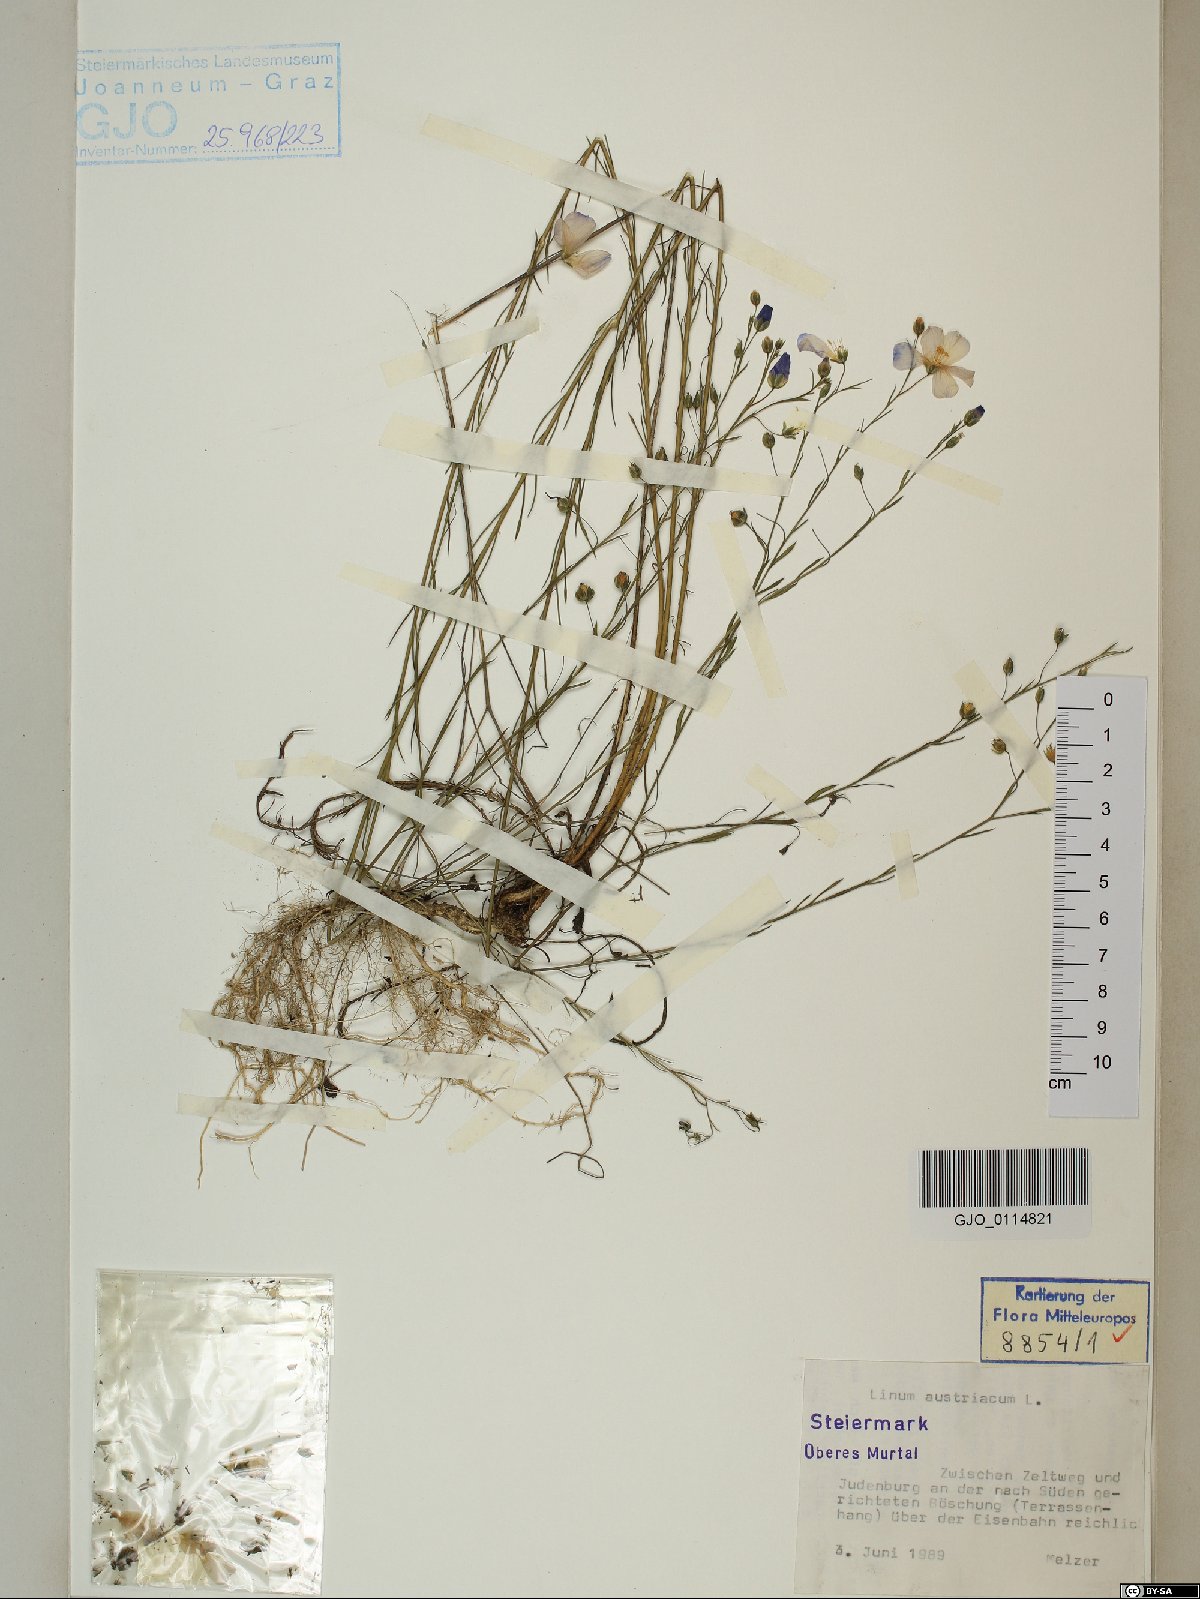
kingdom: Plantae
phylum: Tracheophyta
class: Magnoliopsida
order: Malpighiales
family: Linaceae
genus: Linum
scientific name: Linum austriacum
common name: Austrian flax
